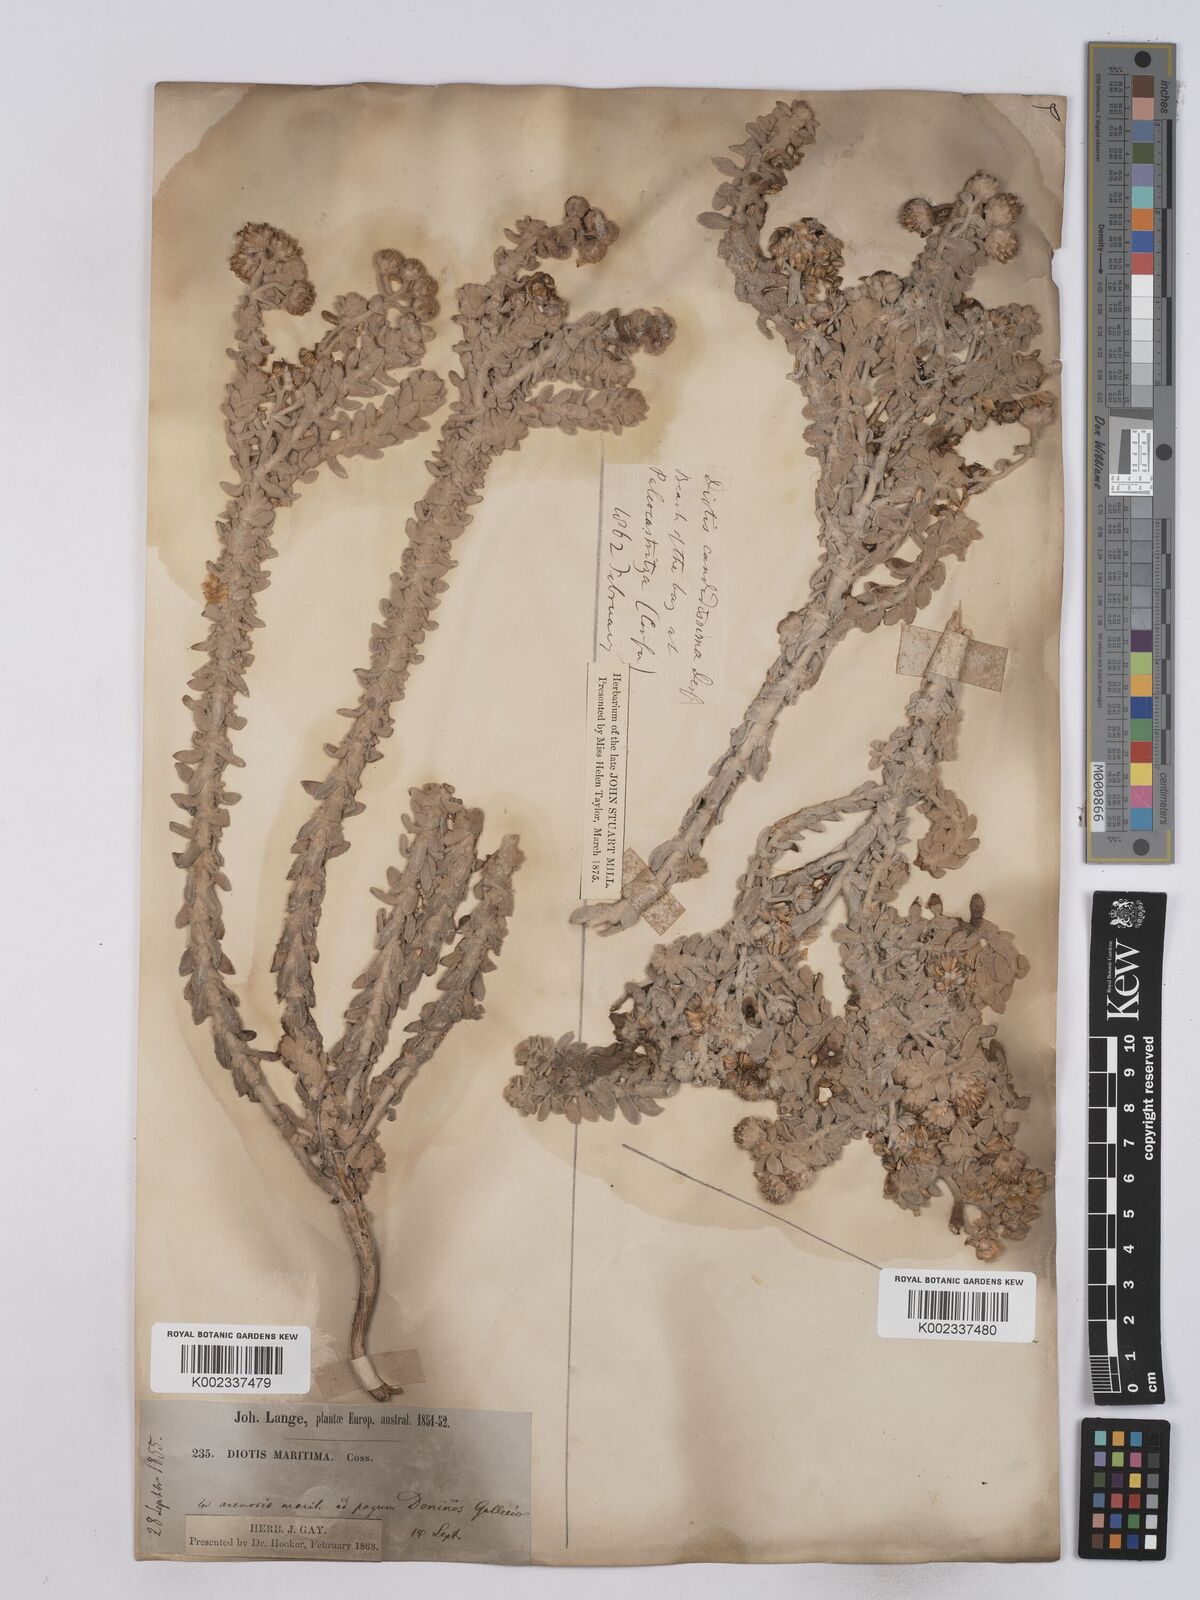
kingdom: Plantae
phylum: Tracheophyta
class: Magnoliopsida
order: Asterales
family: Asteraceae
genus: Achillea
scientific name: Achillea maritima
